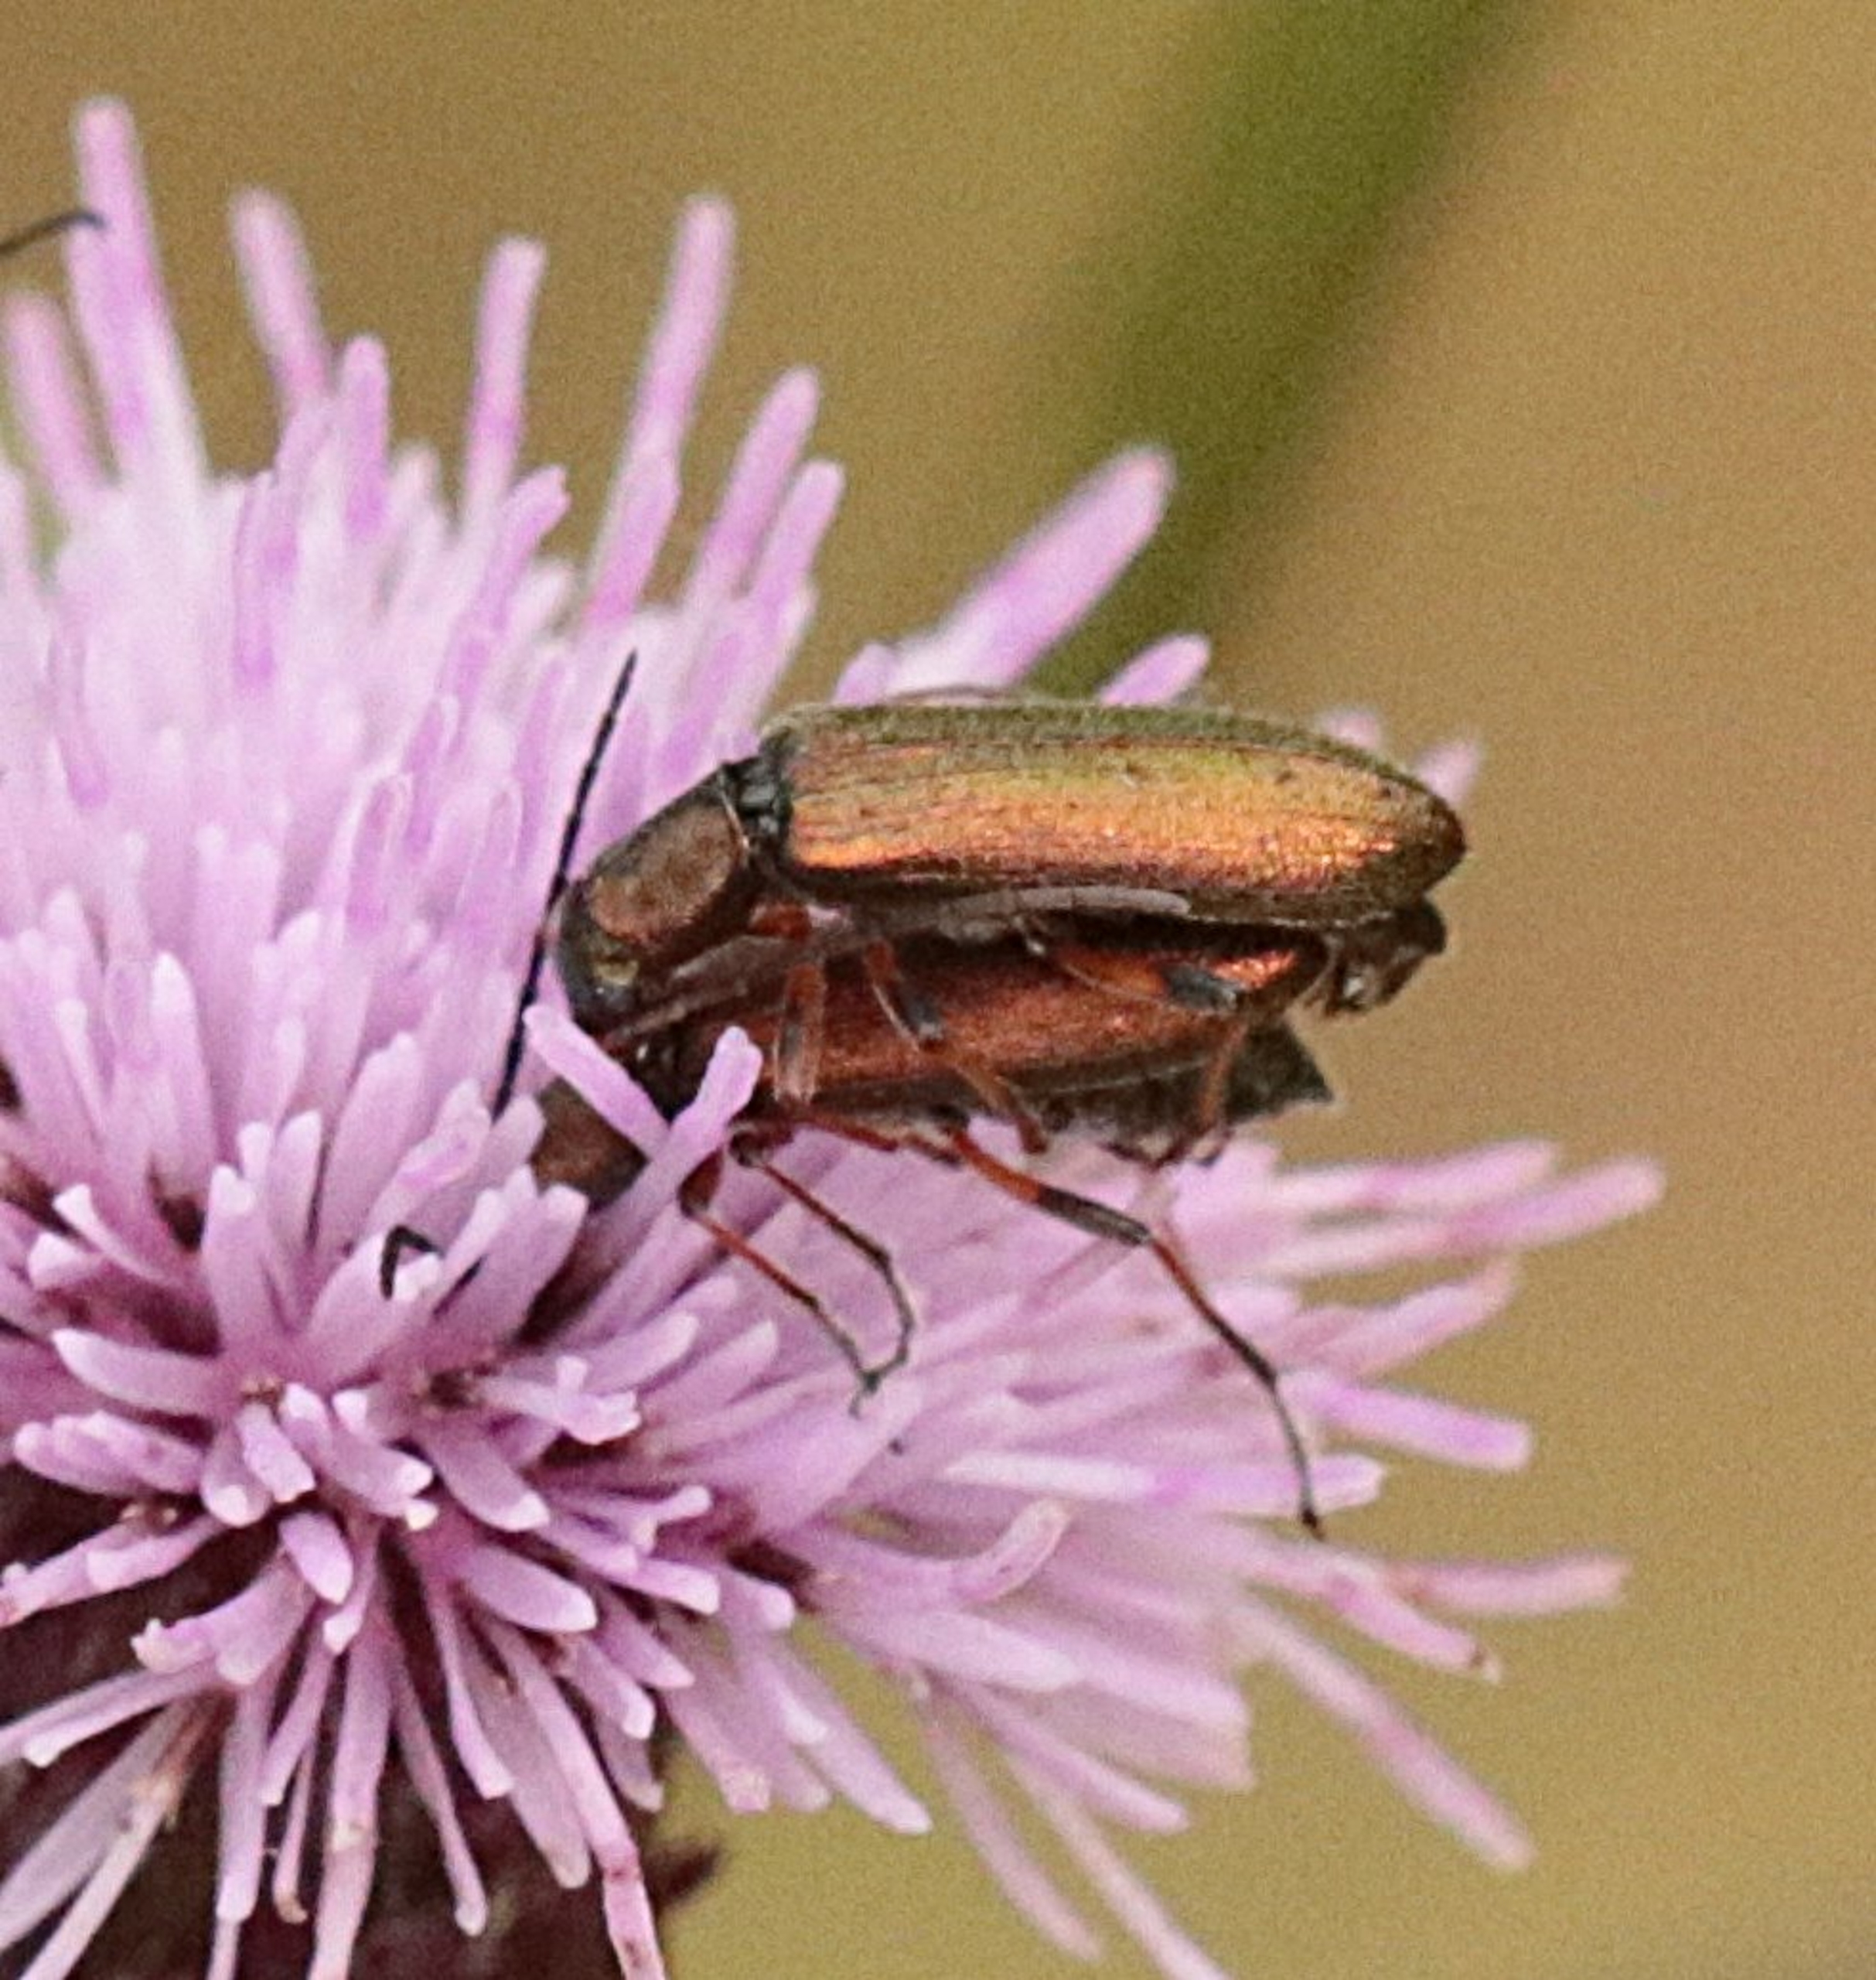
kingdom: Animalia
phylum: Arthropoda
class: Insecta
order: Coleoptera
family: Oedemeridae
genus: Chrysanthia
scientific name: Chrysanthia geniculata
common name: Grøn solbille
